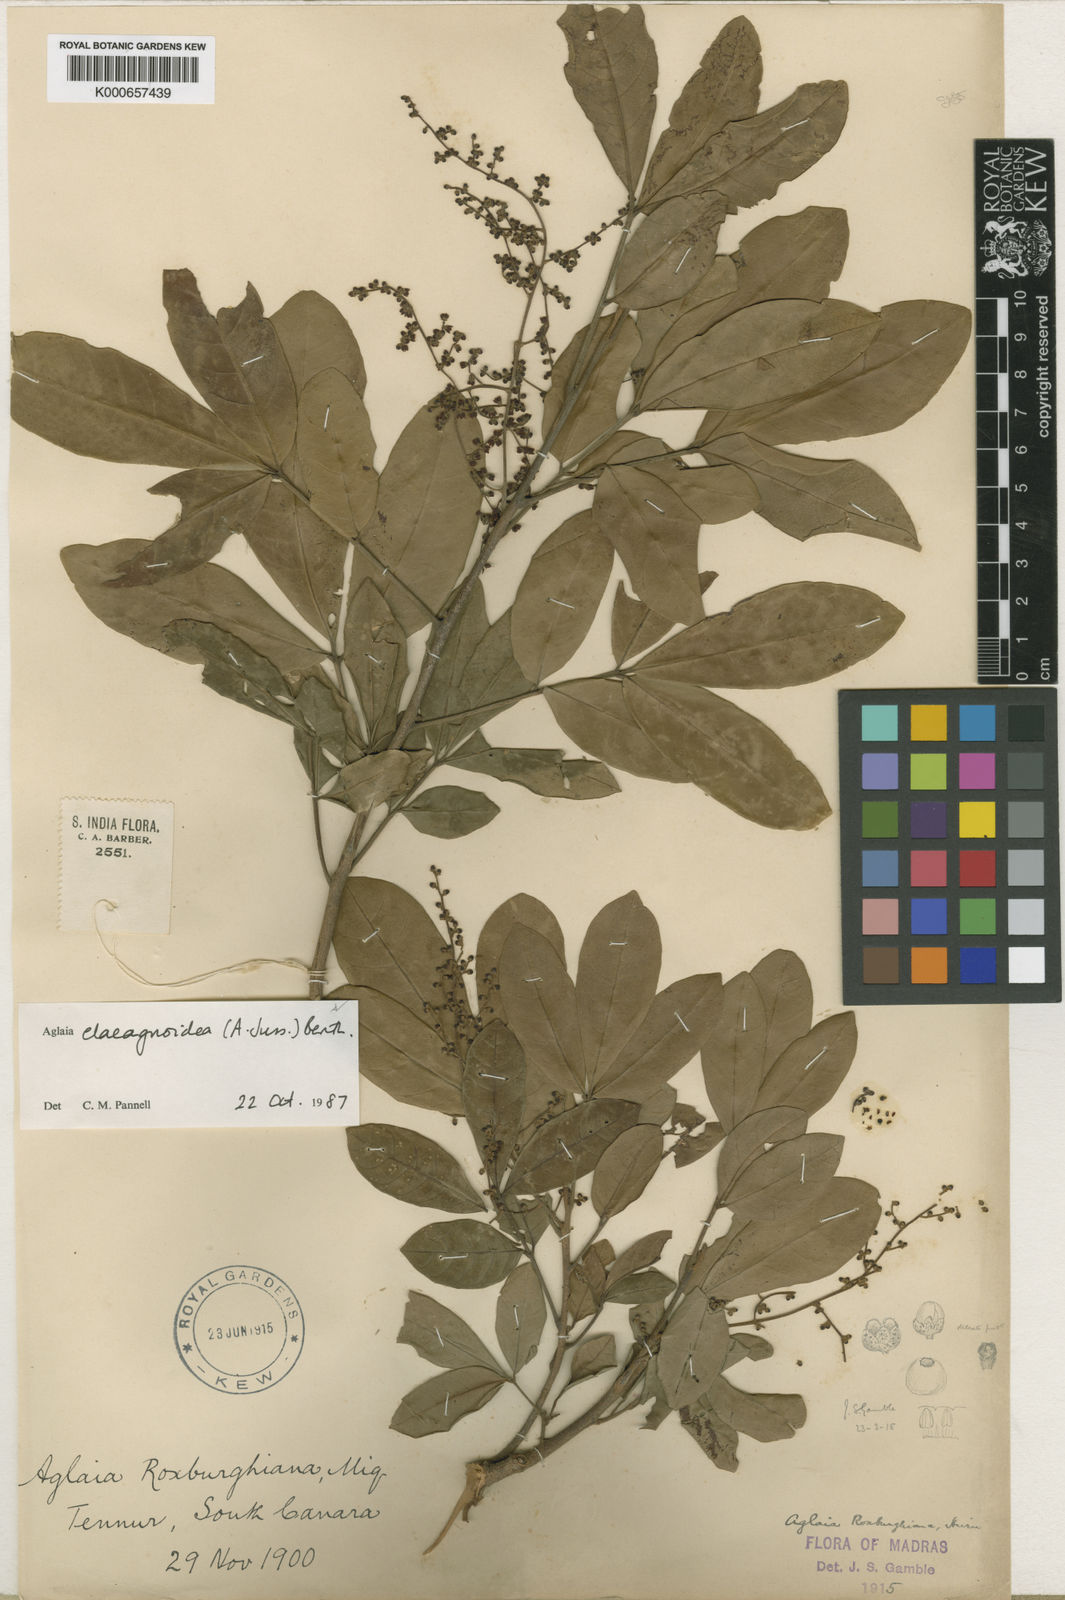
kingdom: Plantae
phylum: Tracheophyta
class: Magnoliopsida
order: Sapindales
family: Meliaceae
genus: Aglaia
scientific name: Aglaia elaeagnoidea
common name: Droopyleaf
